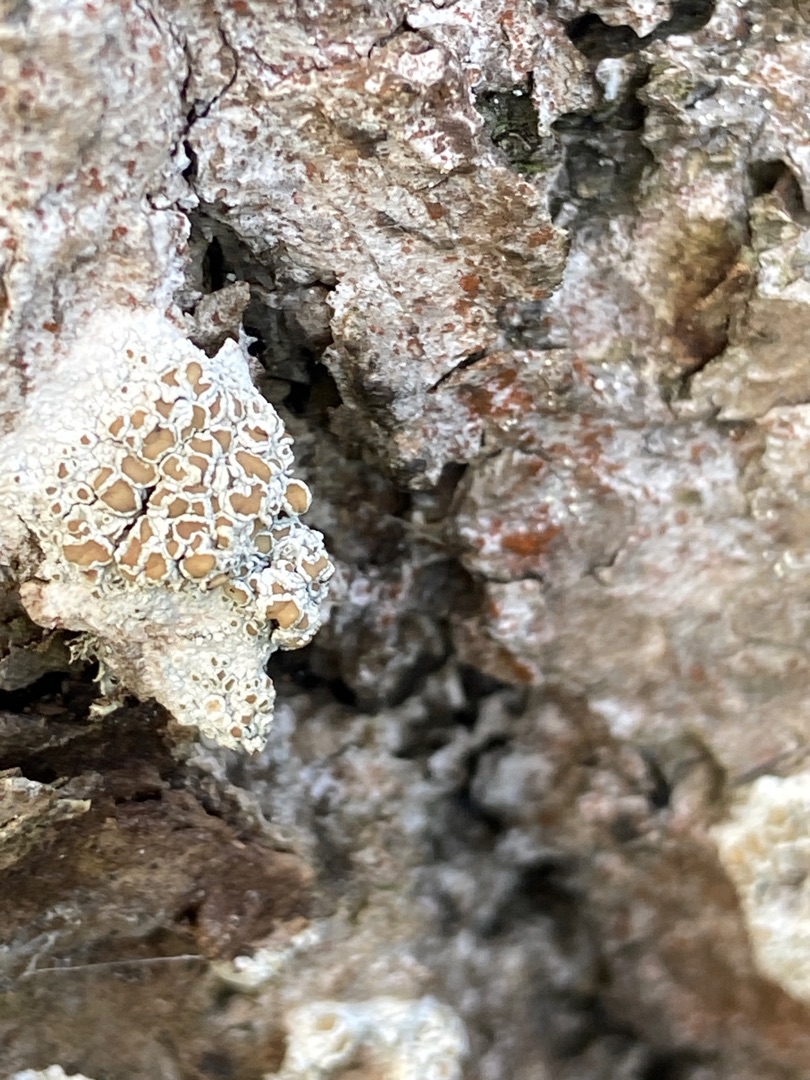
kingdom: Fungi
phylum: Ascomycota
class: Lecanoromycetes
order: Lecanorales
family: Lecanoraceae
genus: Lecanora
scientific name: Lecanora chlarotera
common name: Brun kantskivelav
